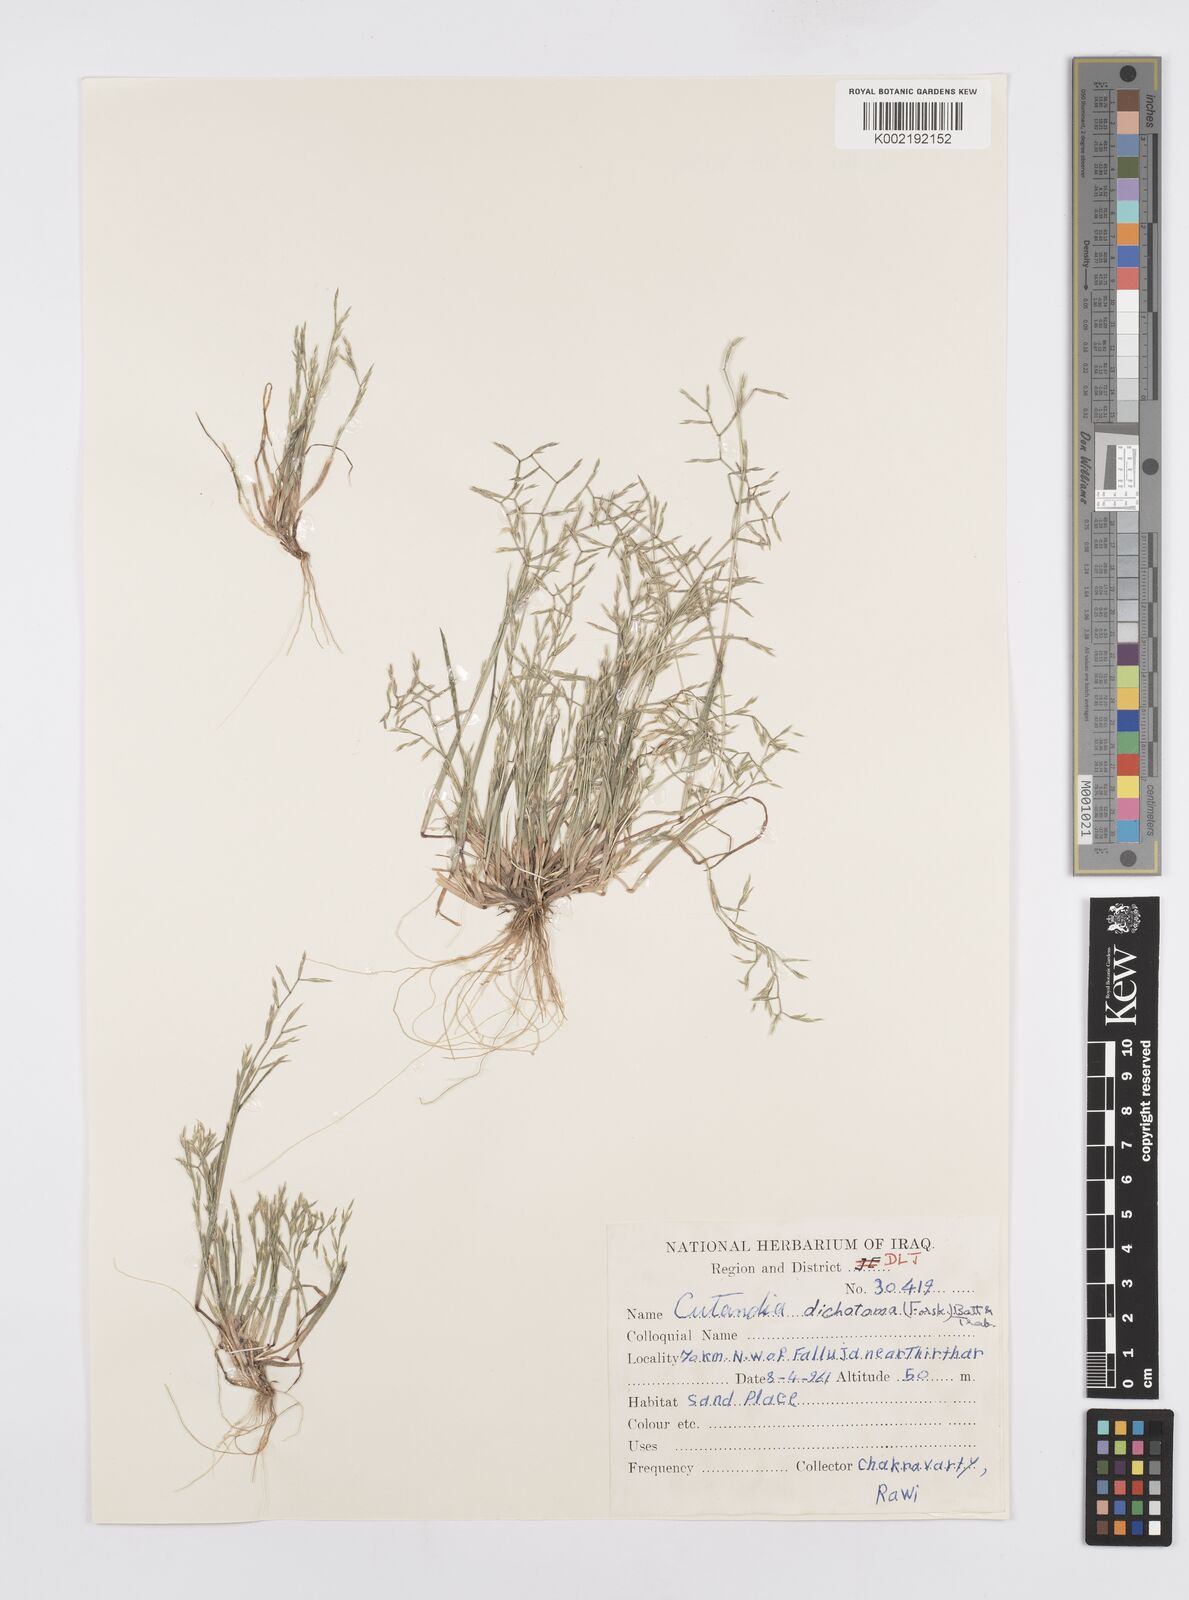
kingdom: Plantae
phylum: Tracheophyta
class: Liliopsida
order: Poales
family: Poaceae
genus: Cutandia
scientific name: Cutandia dichotoma
